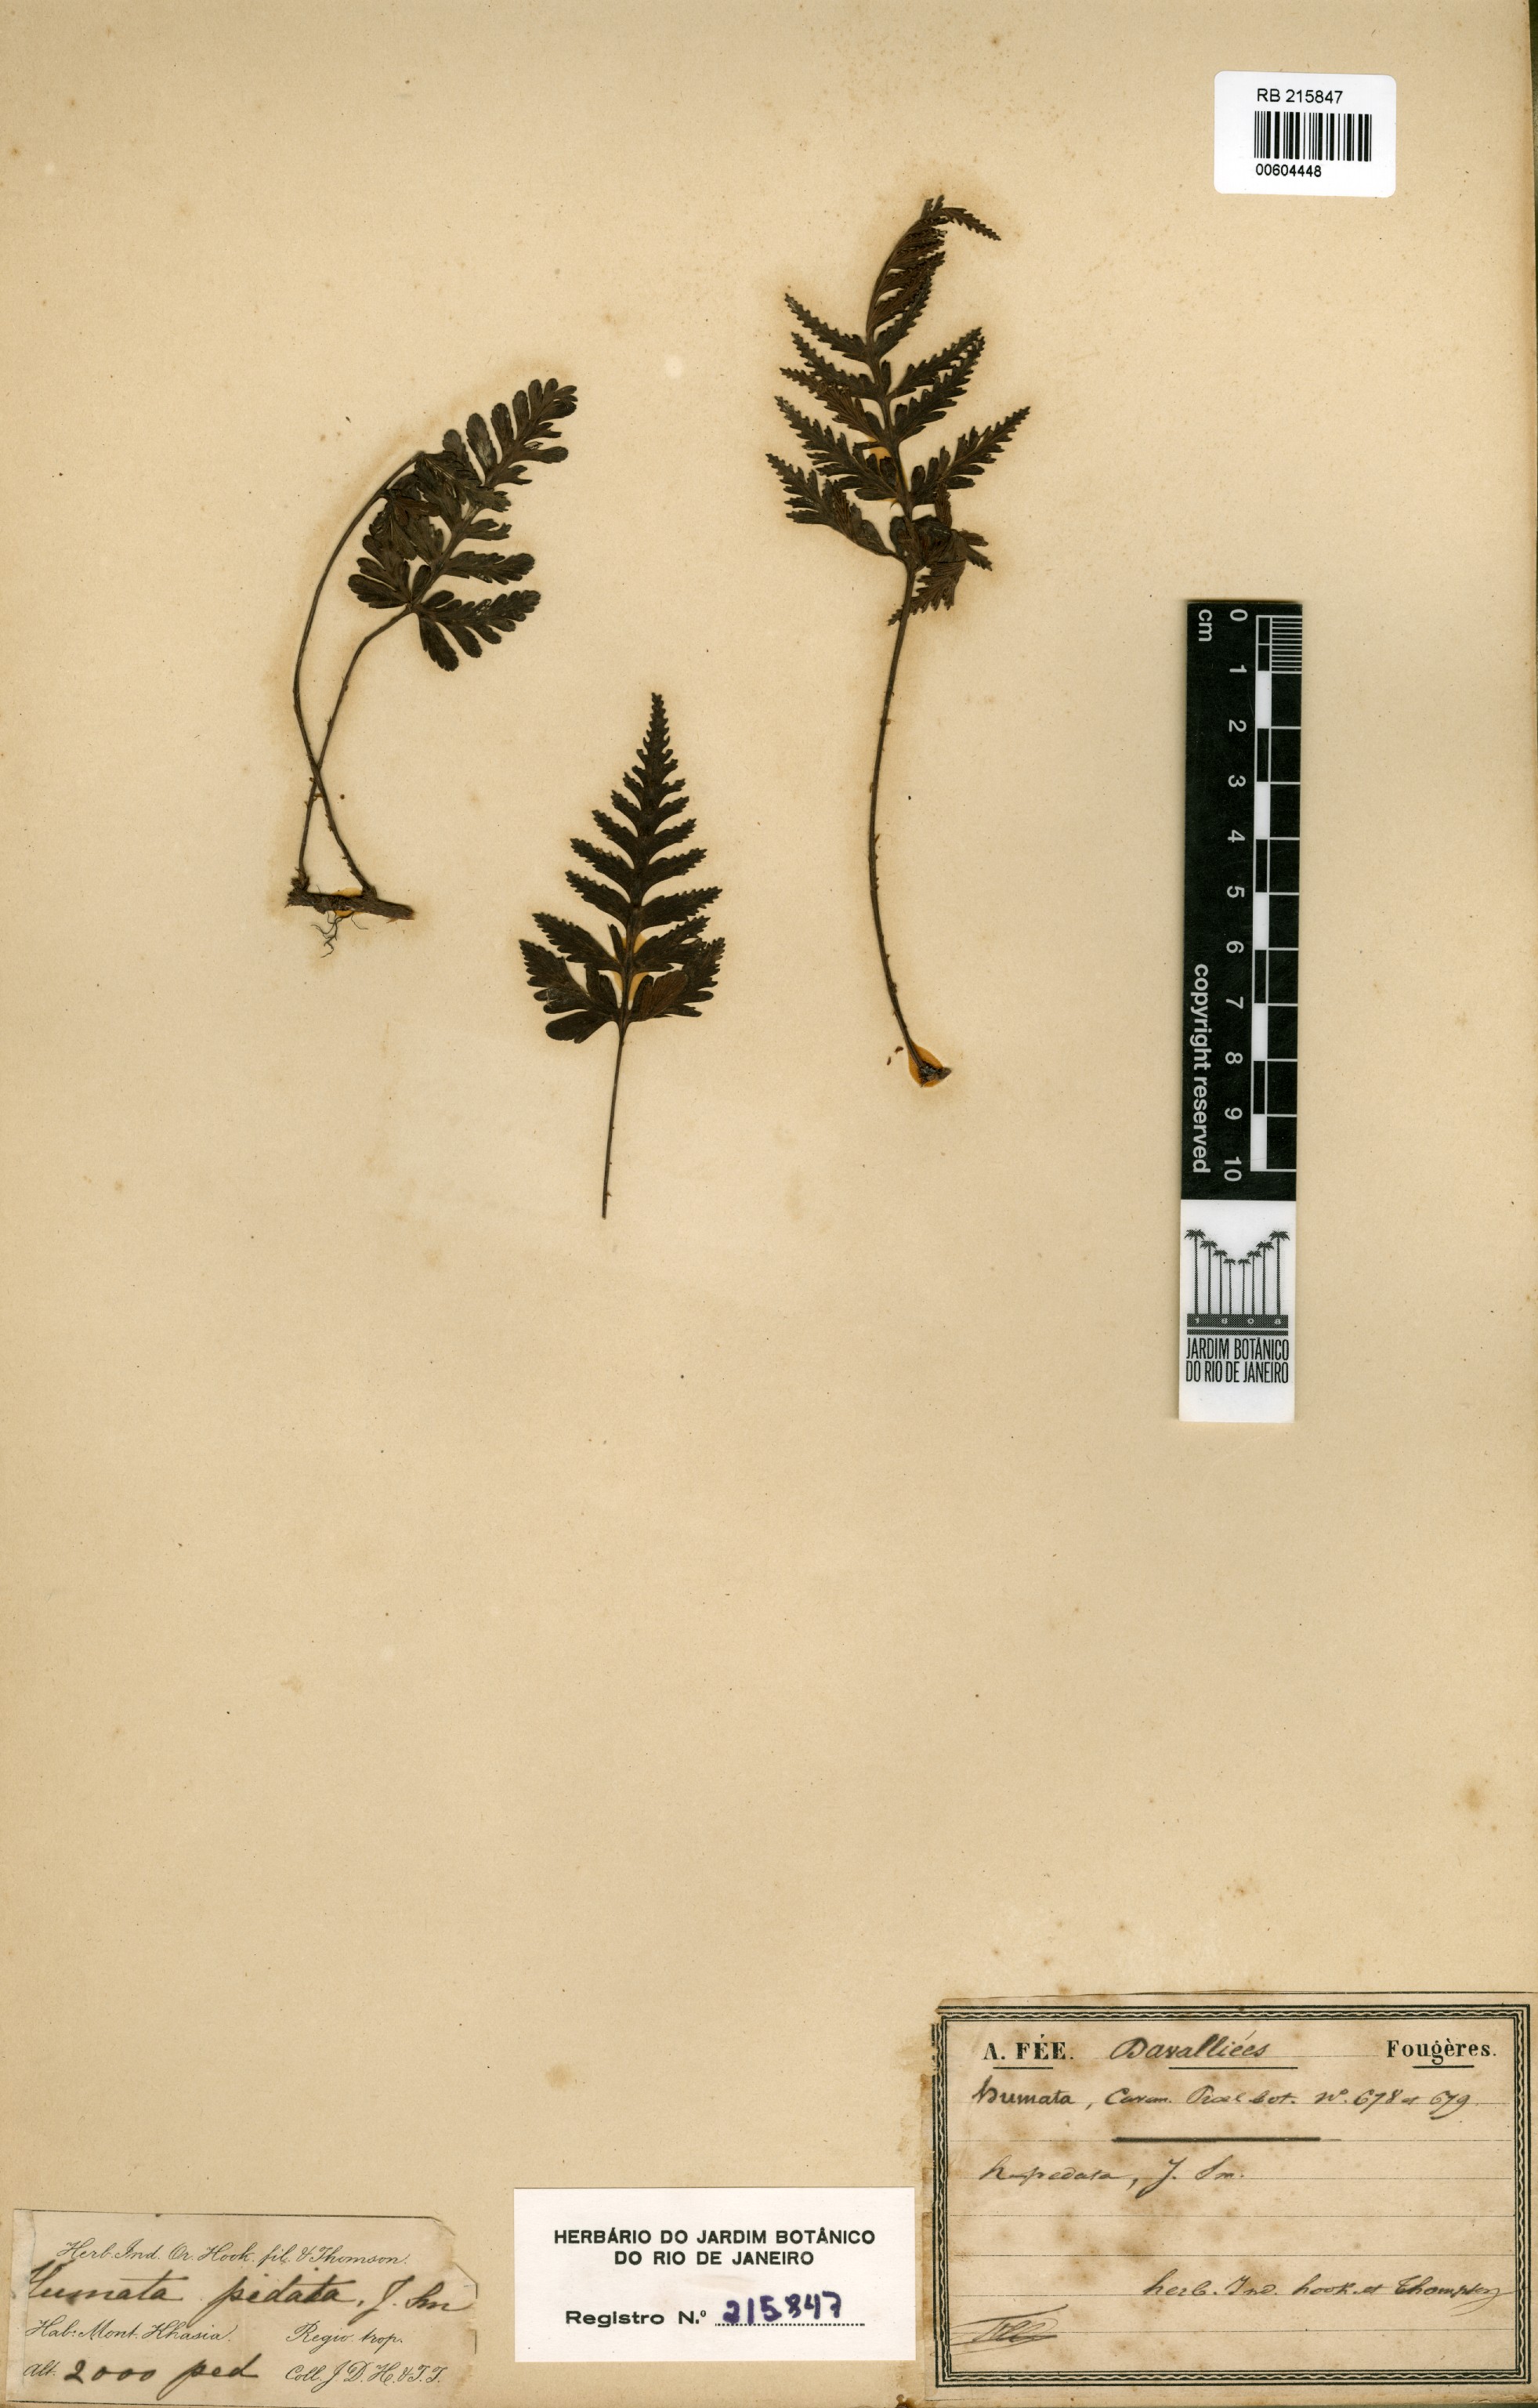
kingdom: Plantae
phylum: Tracheophyta
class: Polypodiopsida
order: Polypodiales
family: Davalliaceae
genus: Davallia
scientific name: Davallia repens
